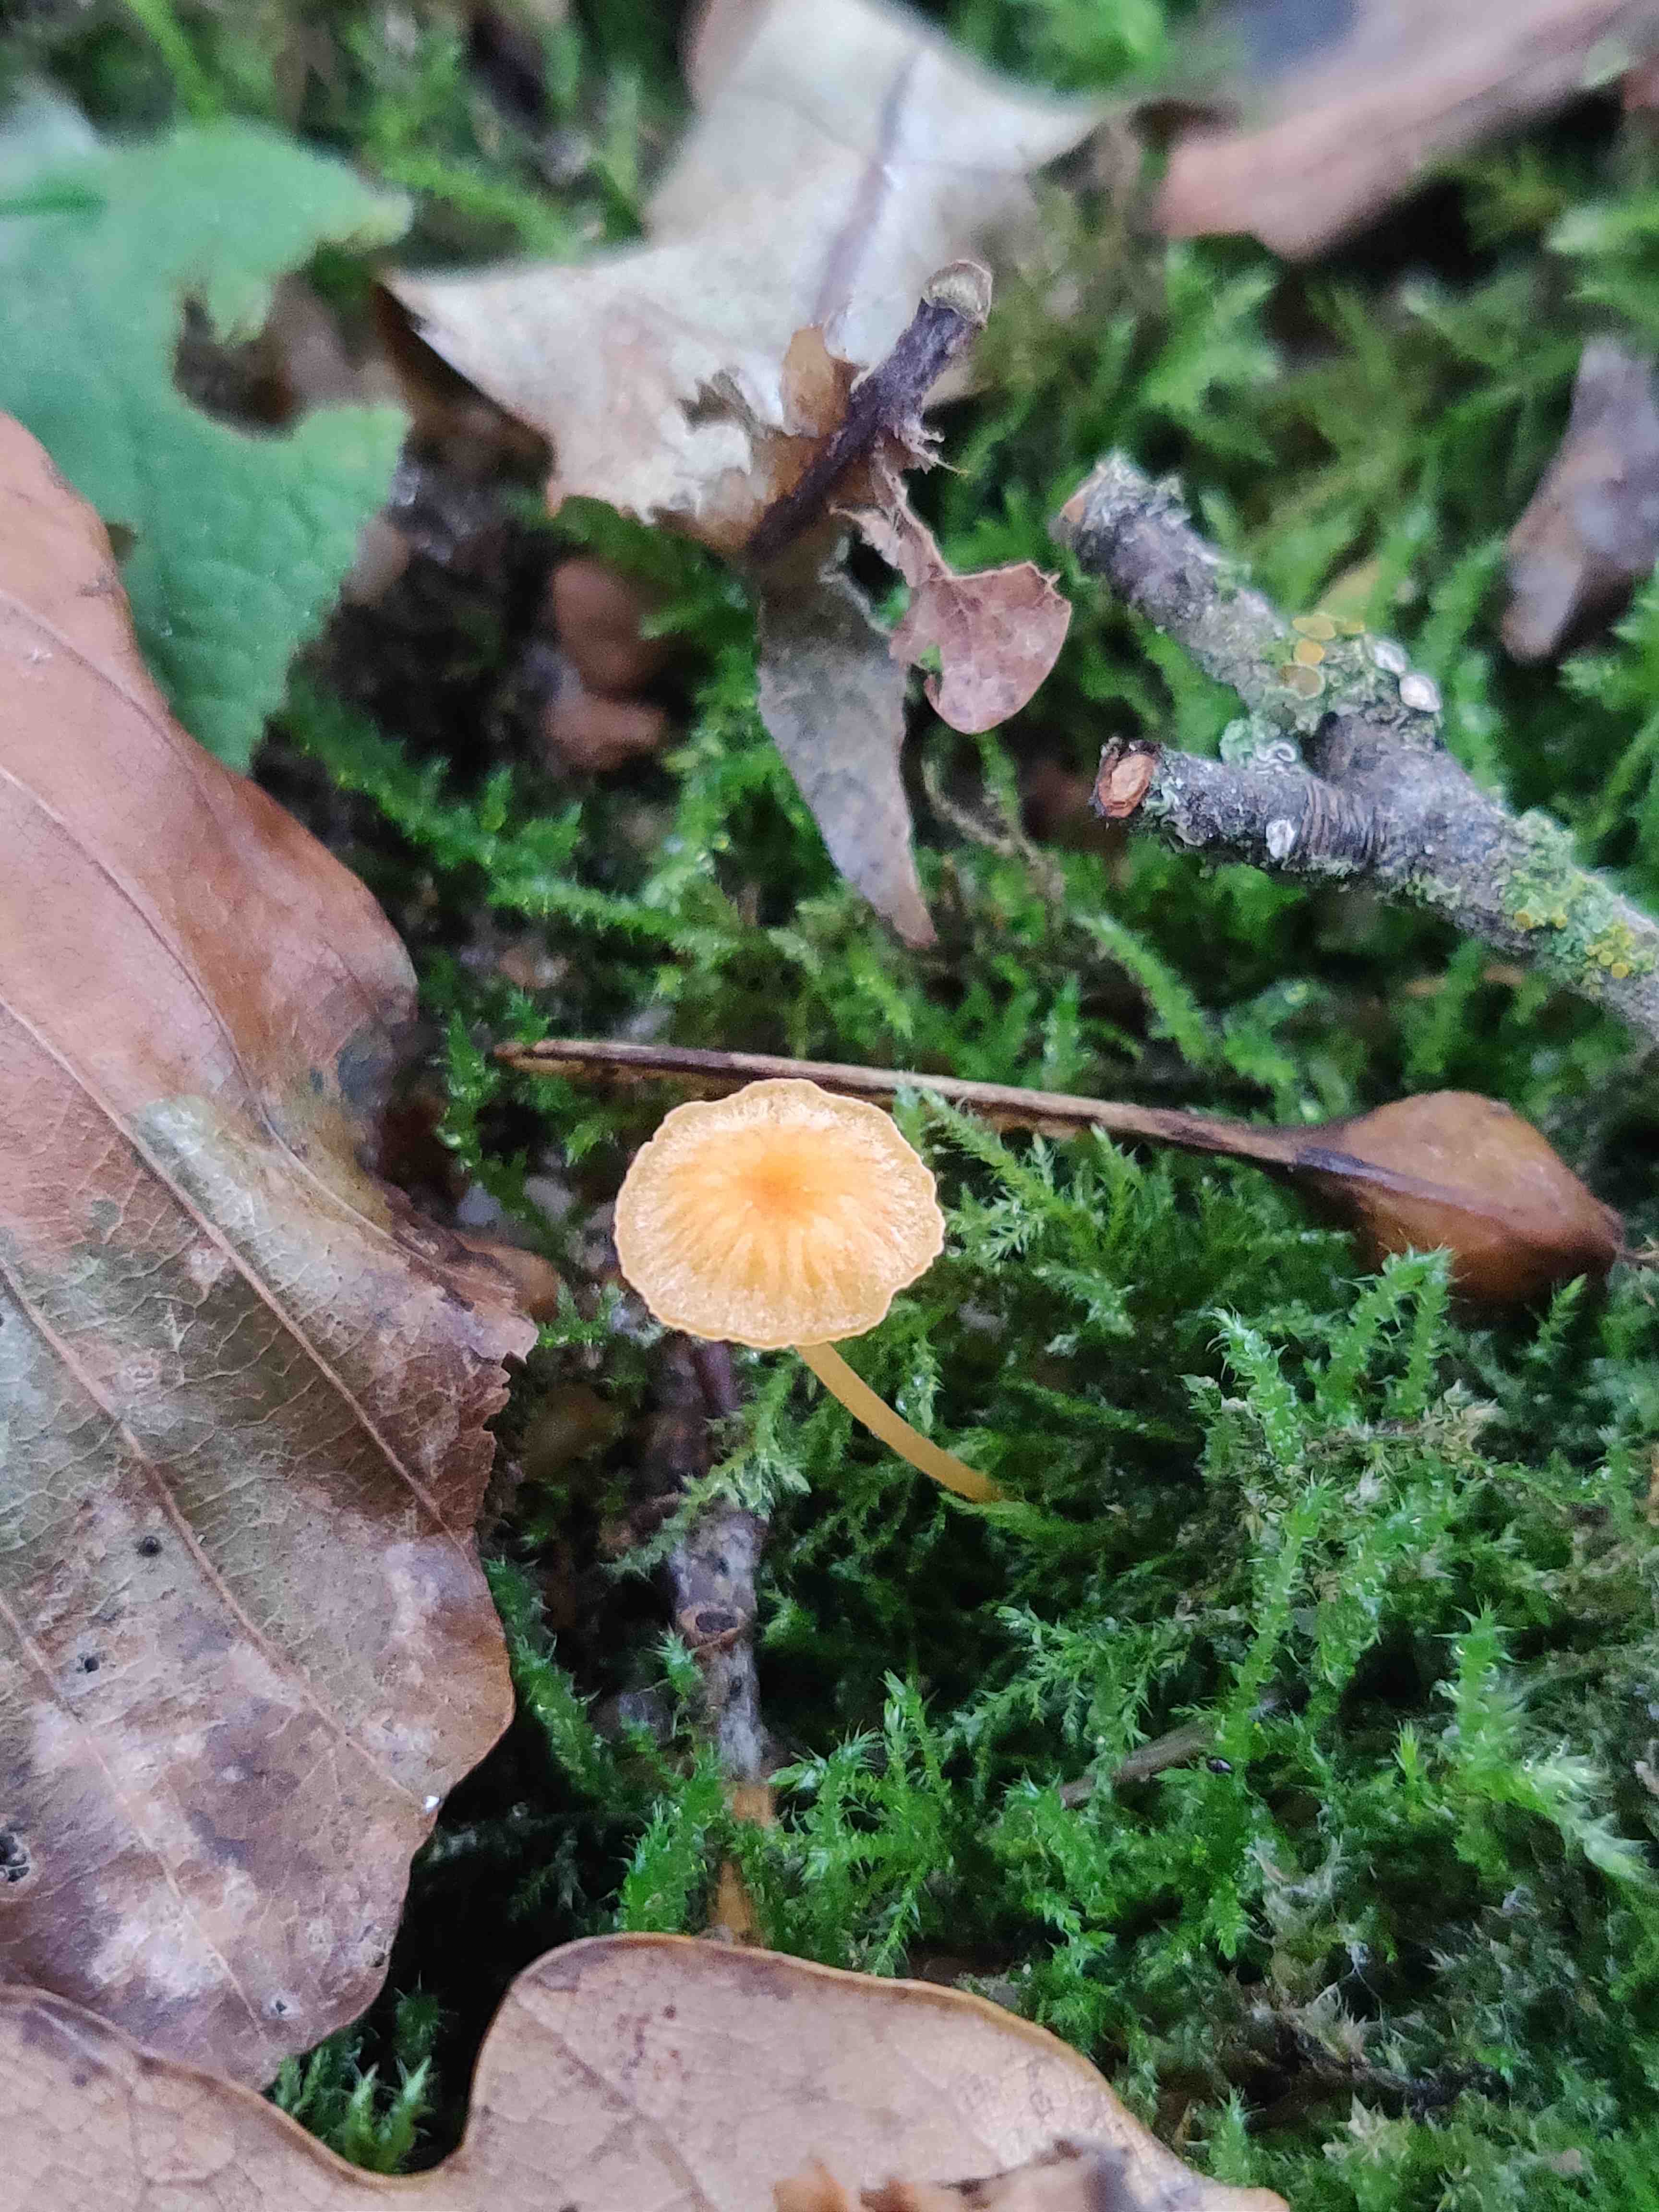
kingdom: Fungi
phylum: Basidiomycota
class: Agaricomycetes
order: Hymenochaetales
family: Rickenellaceae
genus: Rickenella
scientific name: Rickenella fibula
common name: orange mosnavlehat
